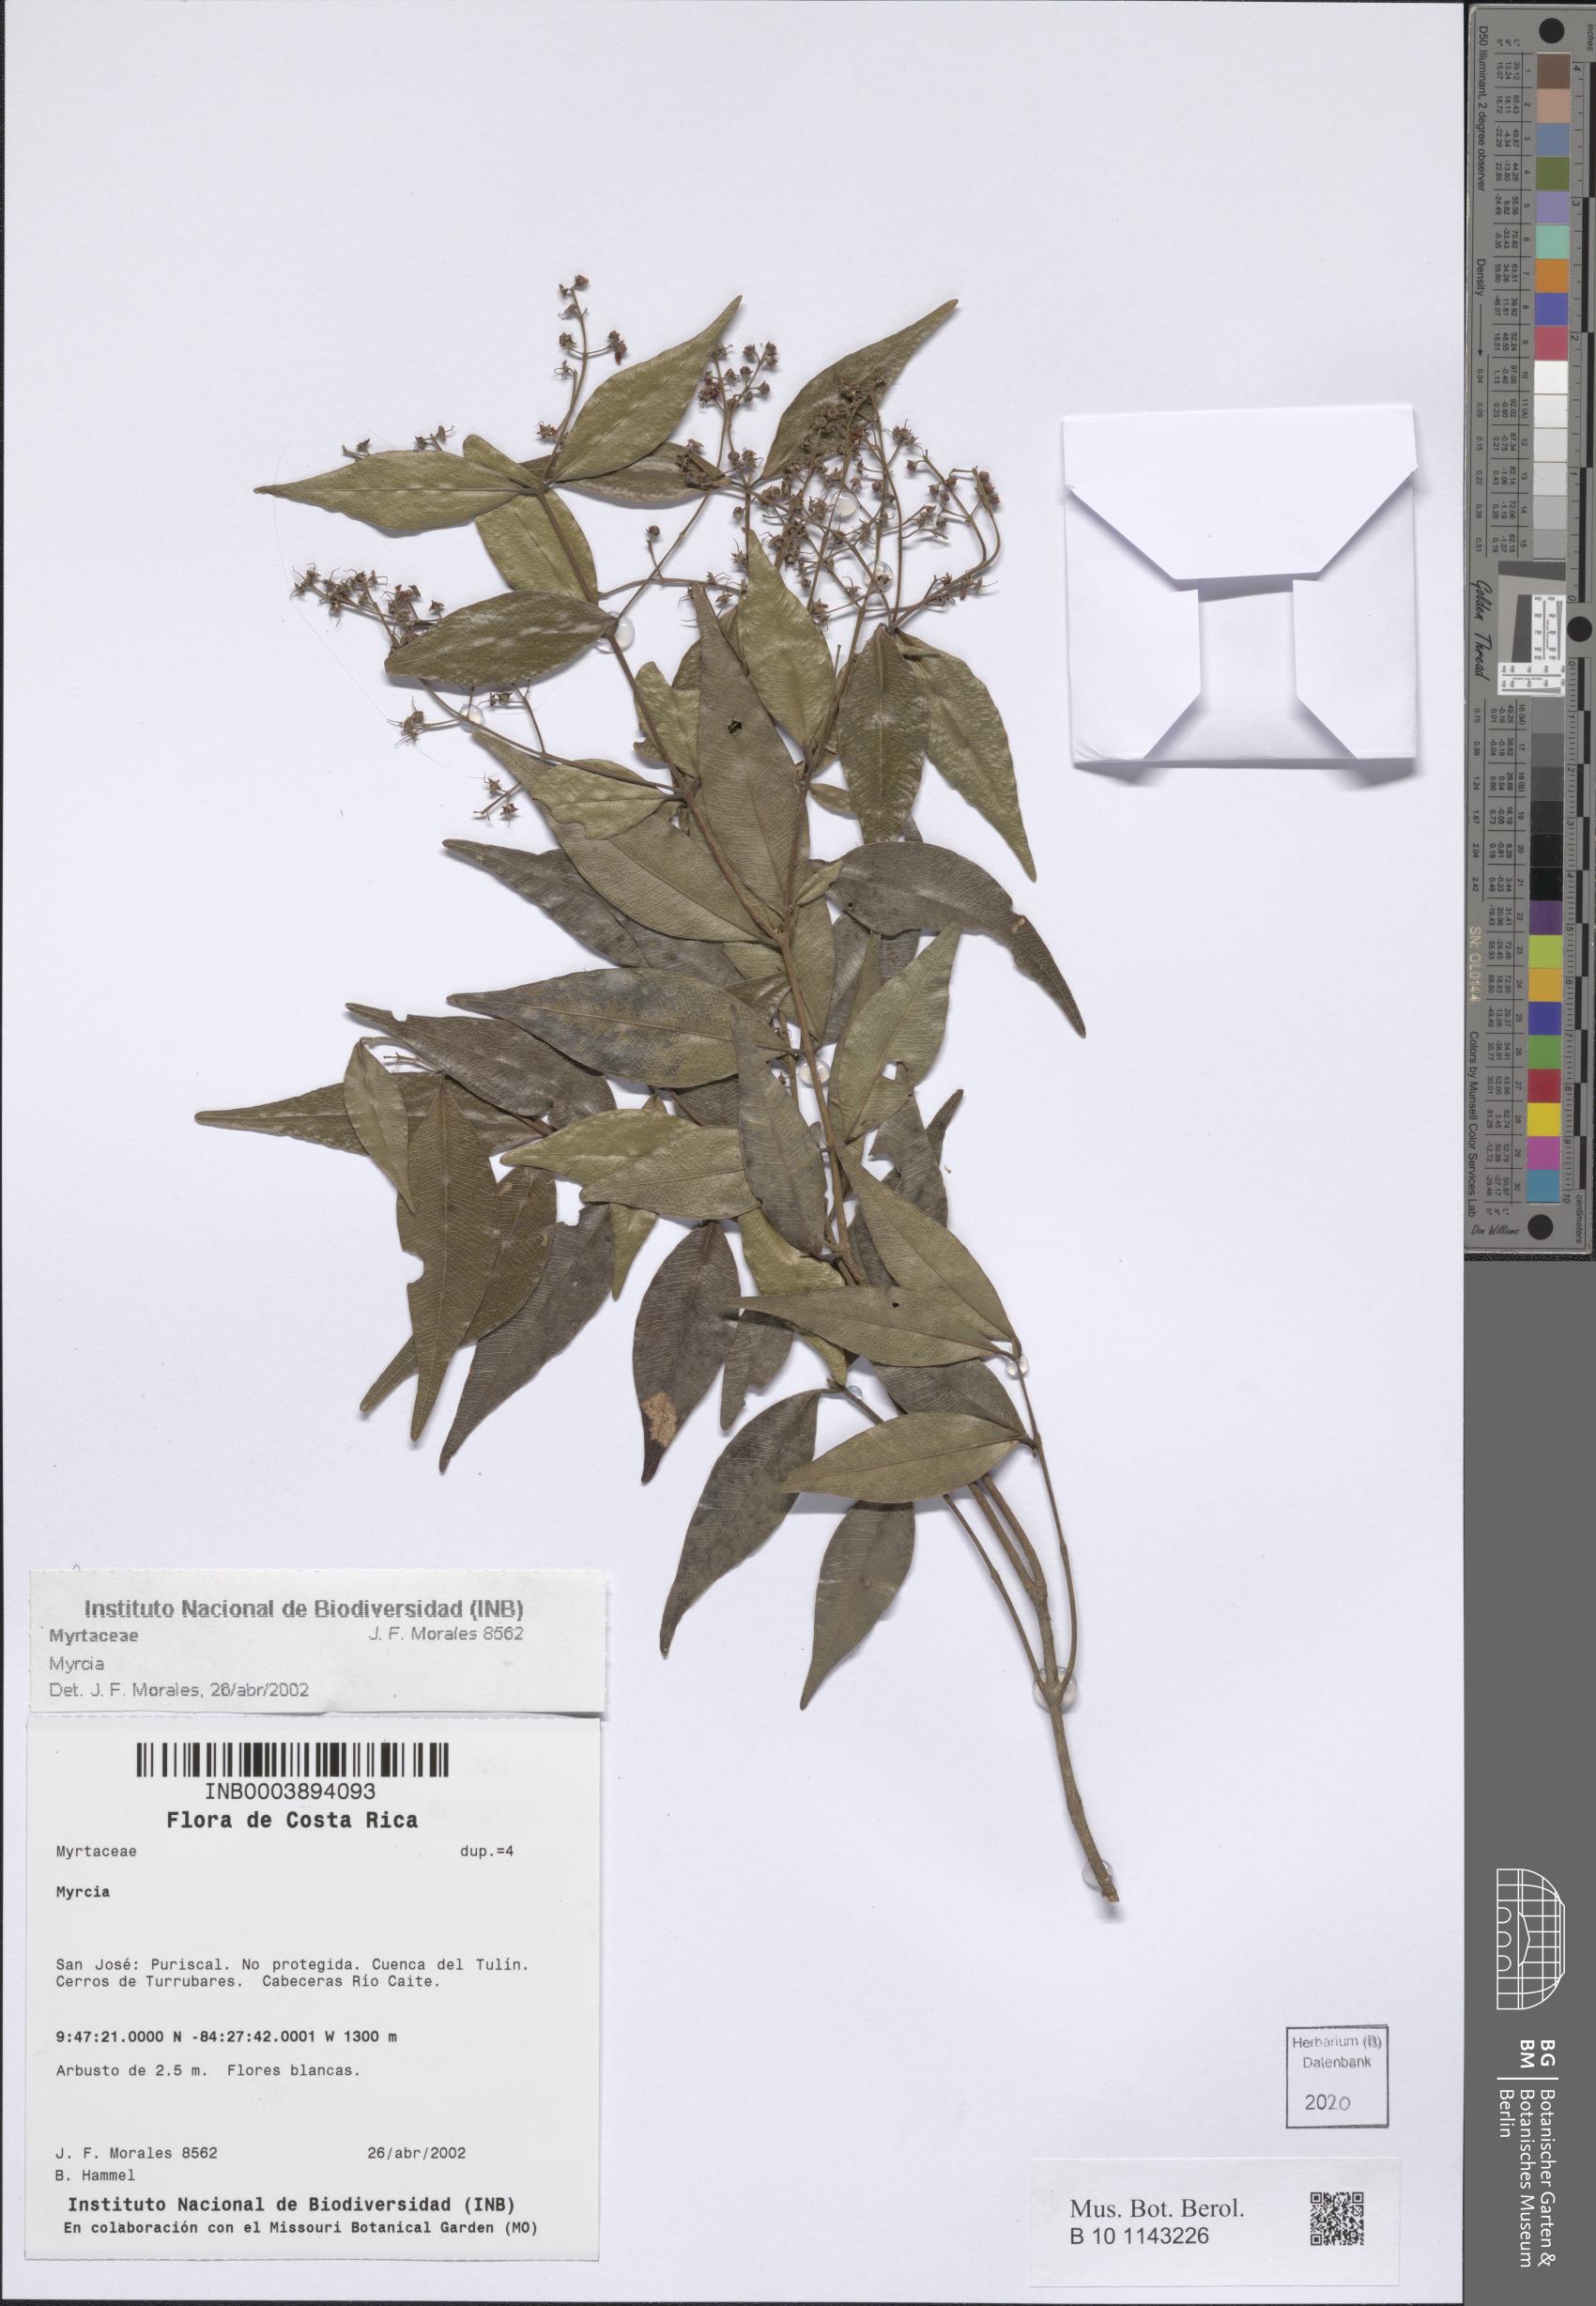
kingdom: Plantae
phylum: Tracheophyta
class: Magnoliopsida
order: Myrtales
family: Myrtaceae
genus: Myrcia
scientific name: Myrcia
